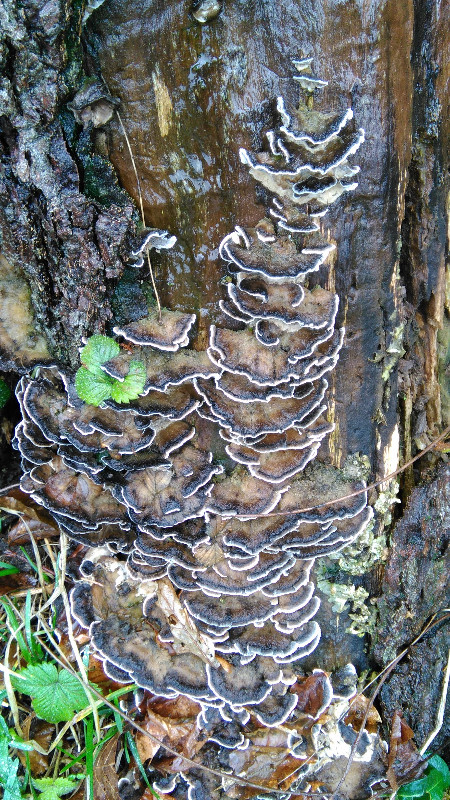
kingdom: Fungi
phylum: Basidiomycota
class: Agaricomycetes
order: Polyporales
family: Phanerochaetaceae
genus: Bjerkandera
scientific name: Bjerkandera adusta
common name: sveden sodporesvamp
